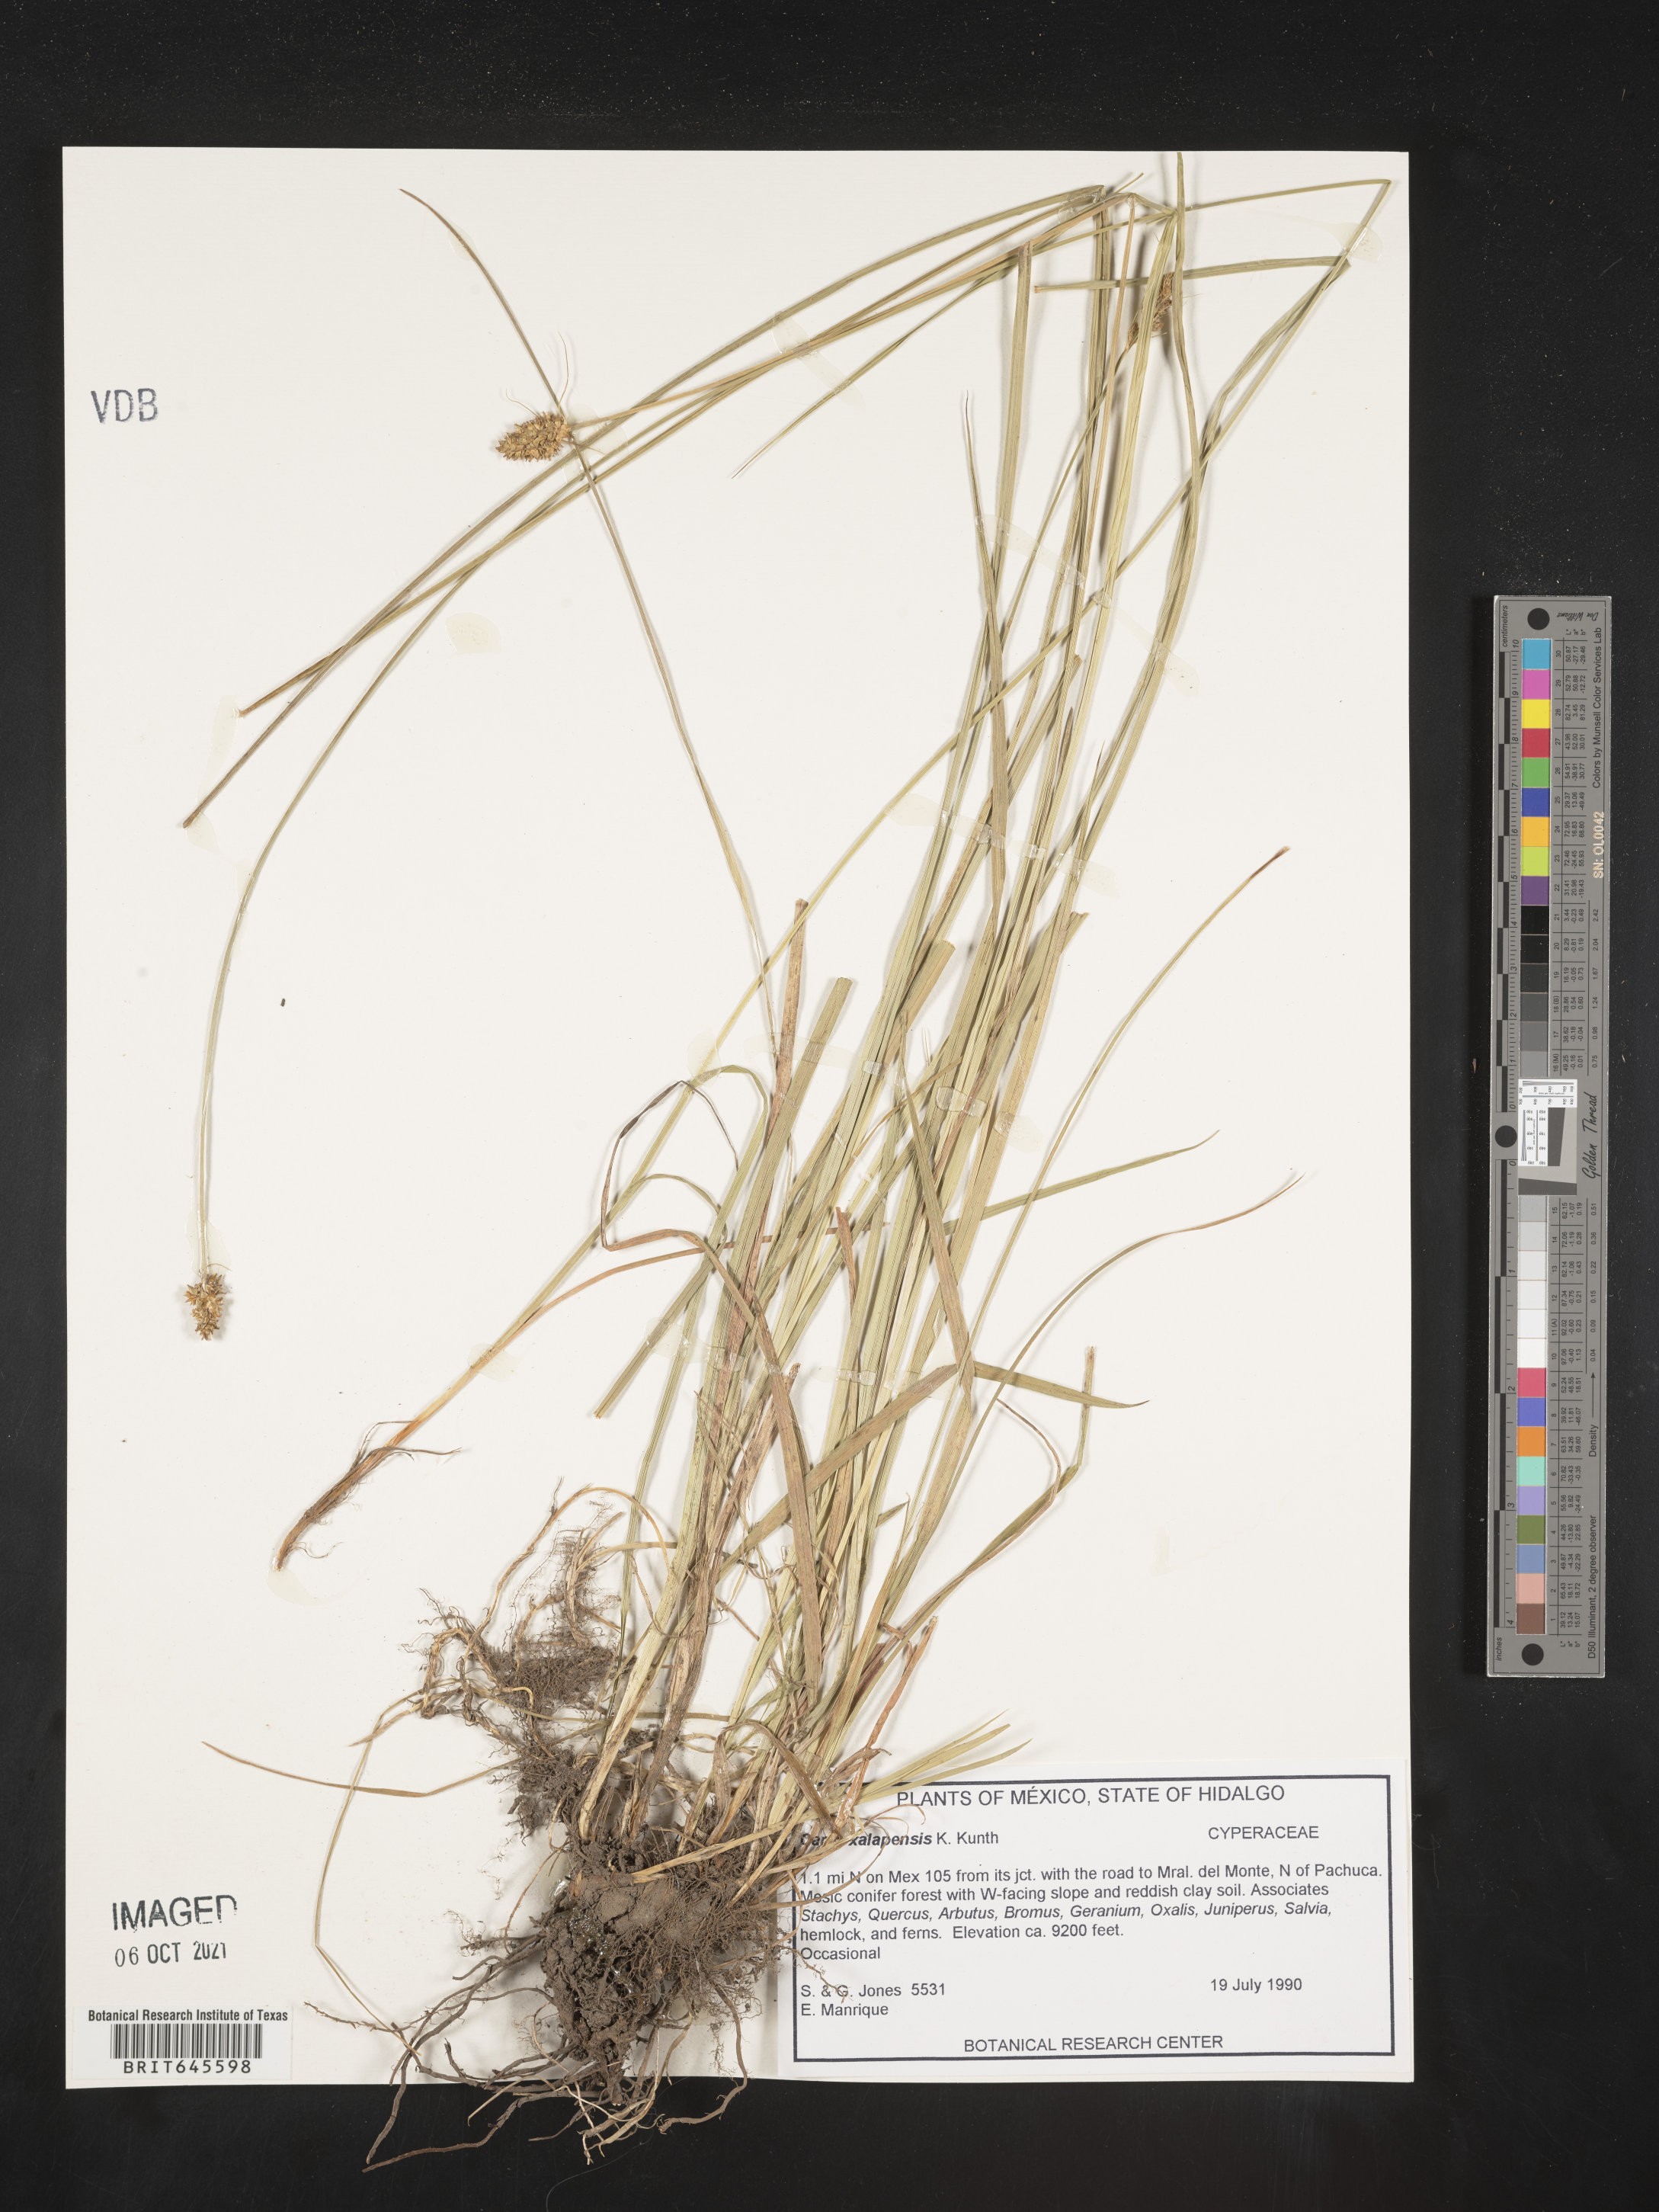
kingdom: Plantae
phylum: Tracheophyta
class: Liliopsida
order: Poales
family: Cyperaceae
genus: Carex
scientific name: Carex
